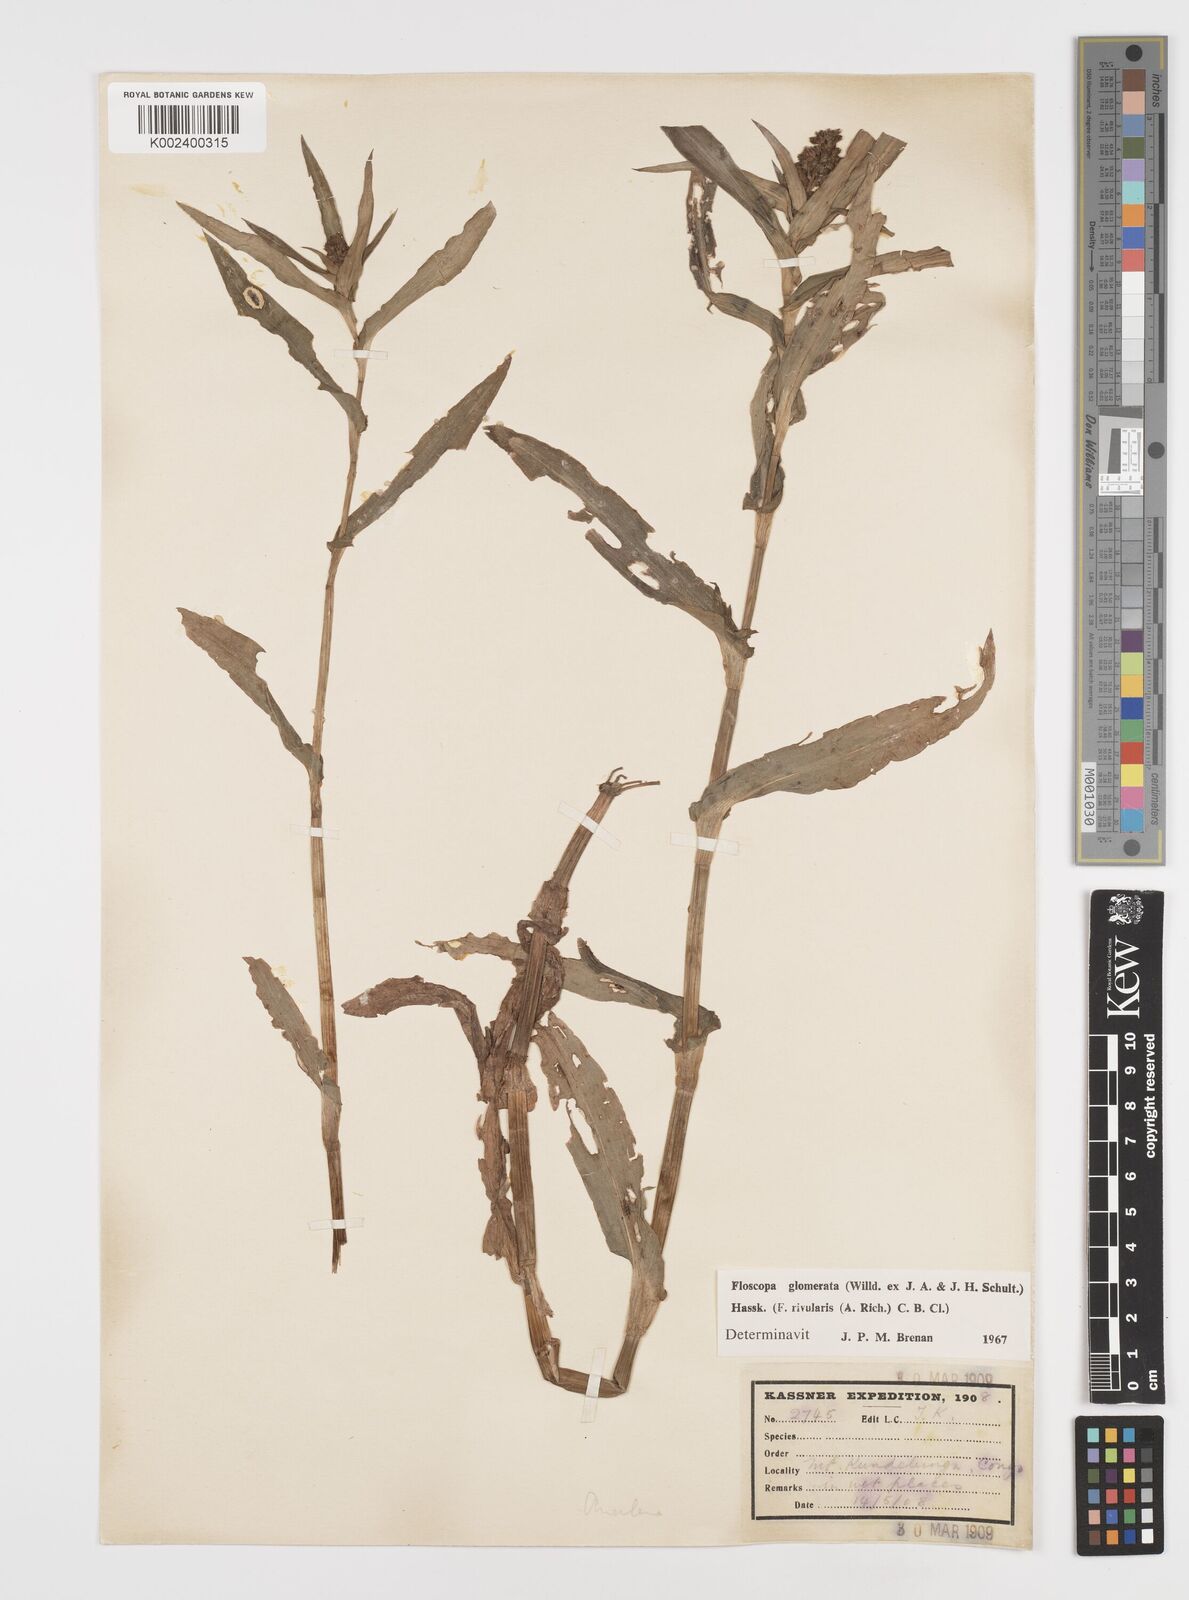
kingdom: Plantae
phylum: Tracheophyta
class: Liliopsida
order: Commelinales
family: Commelinaceae
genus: Floscopa
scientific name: Floscopa glomerata
